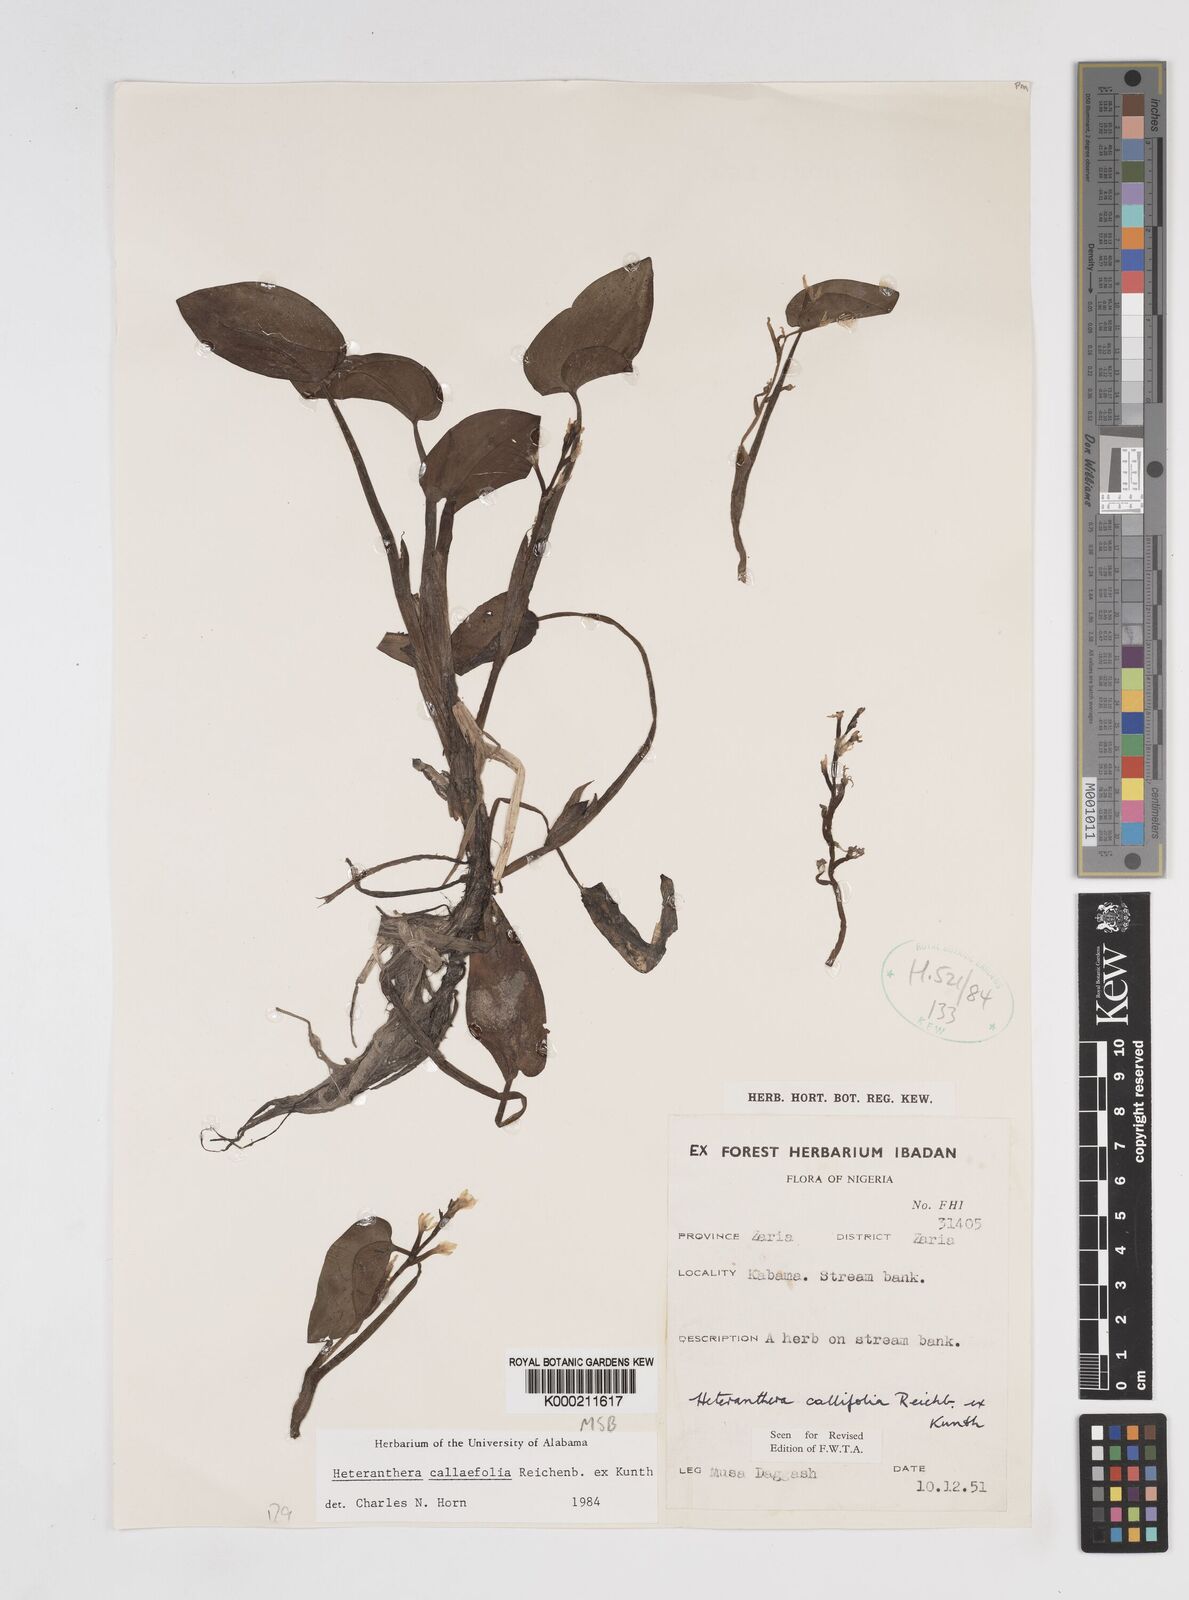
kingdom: Plantae
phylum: Tracheophyta
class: Liliopsida
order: Commelinales
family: Pontederiaceae
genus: Heteranthera
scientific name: Heteranthera callifolia
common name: Mud plantain
